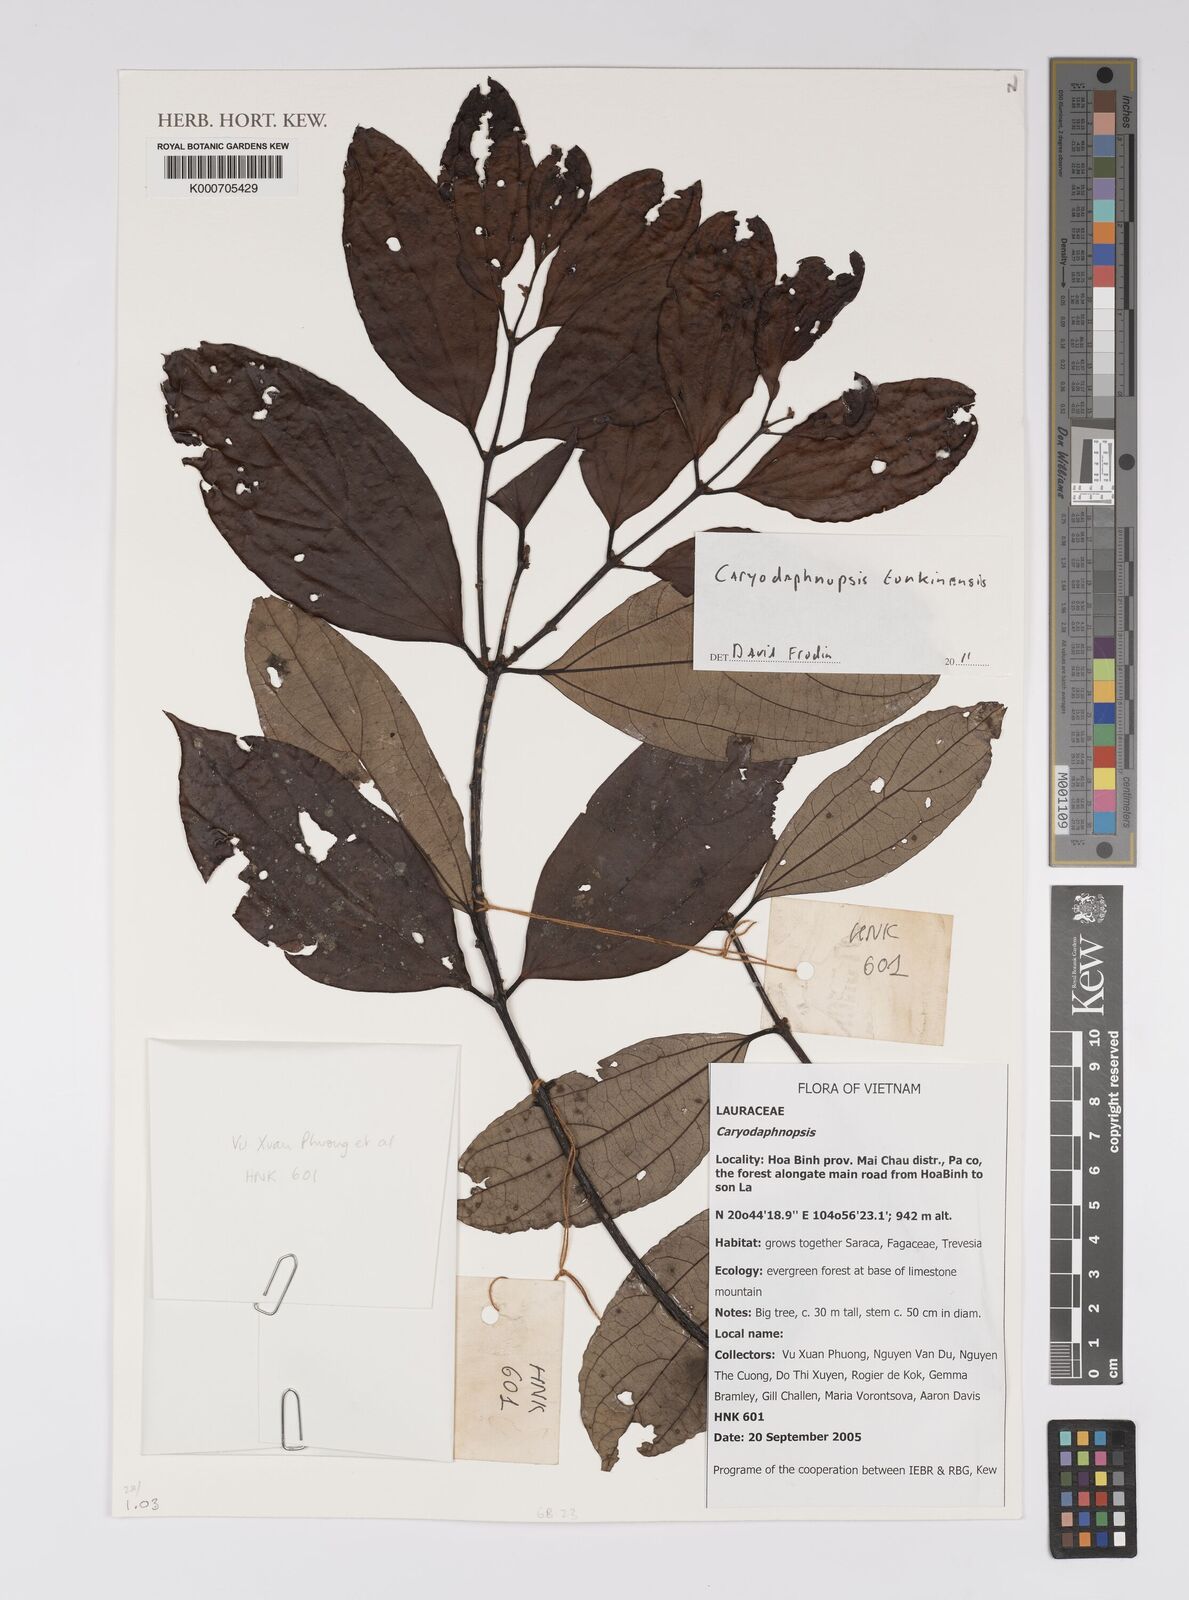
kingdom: Plantae
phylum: Tracheophyta
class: Magnoliopsida
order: Laurales
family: Lauraceae
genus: Caryodaphnopsis
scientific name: Caryodaphnopsis tonkinensis
